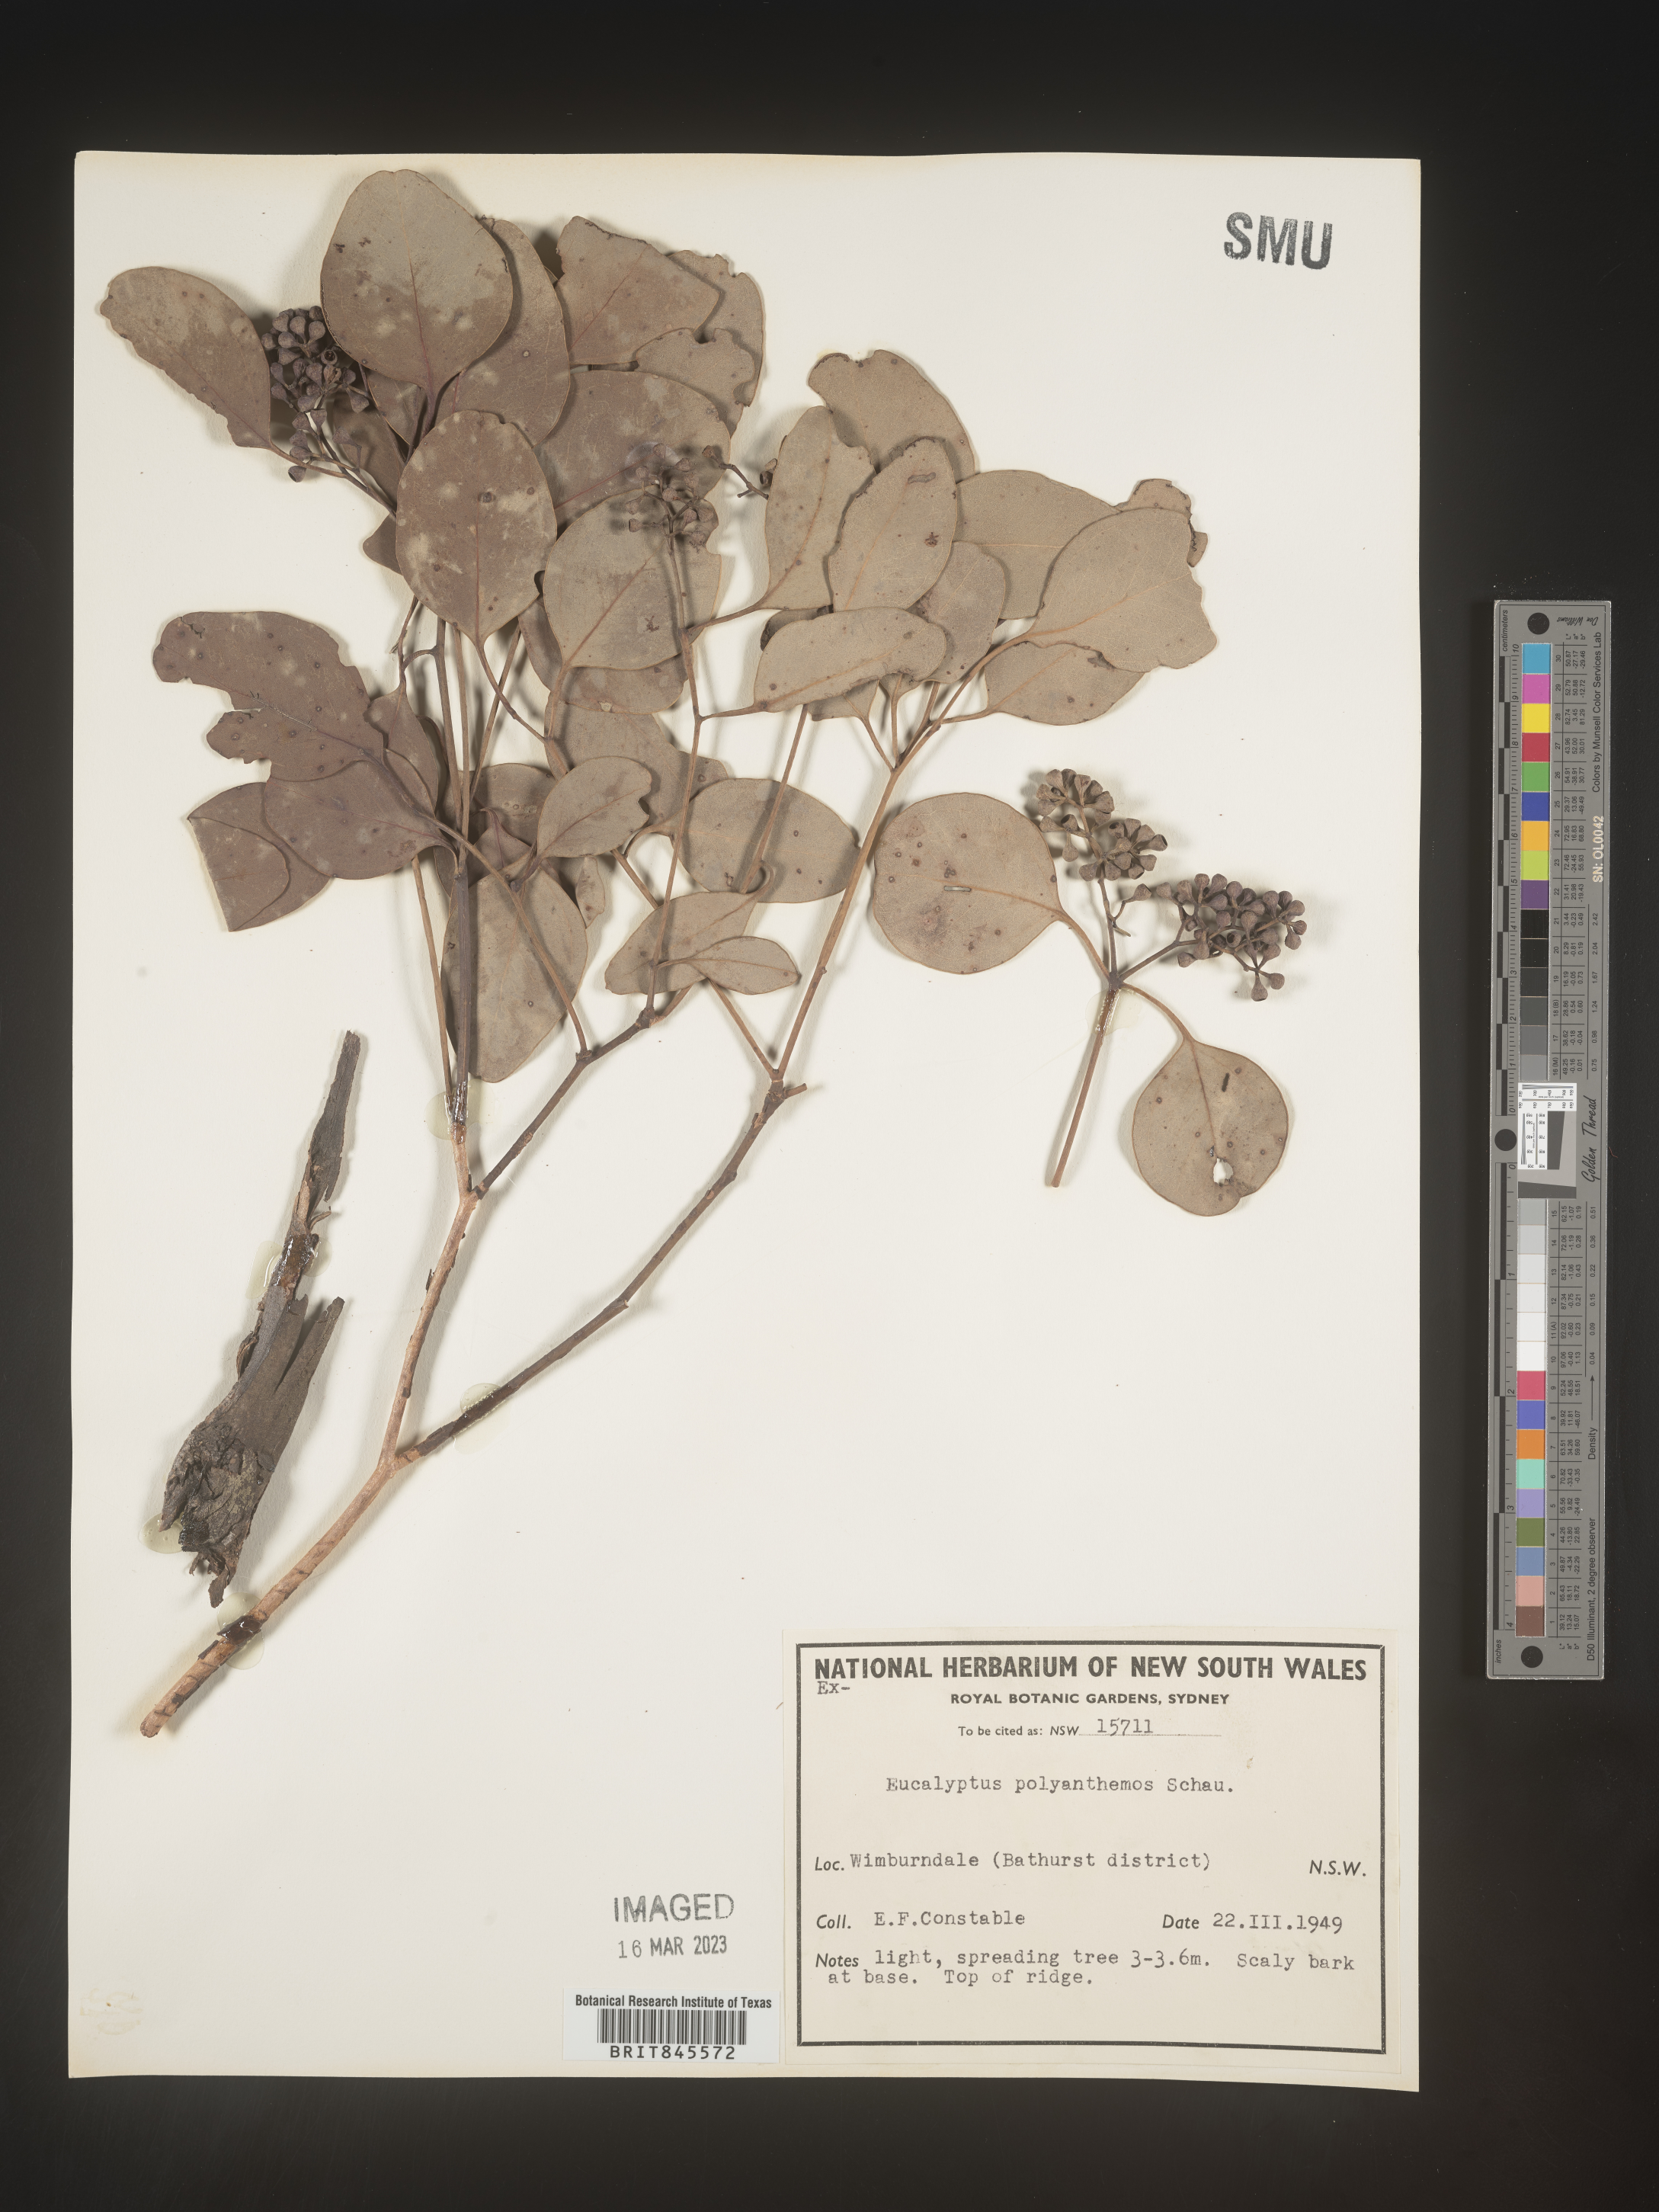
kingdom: Plantae
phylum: Tracheophyta
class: Magnoliopsida
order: Myrtales
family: Myrtaceae
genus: Eucalyptus
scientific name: Eucalyptus
